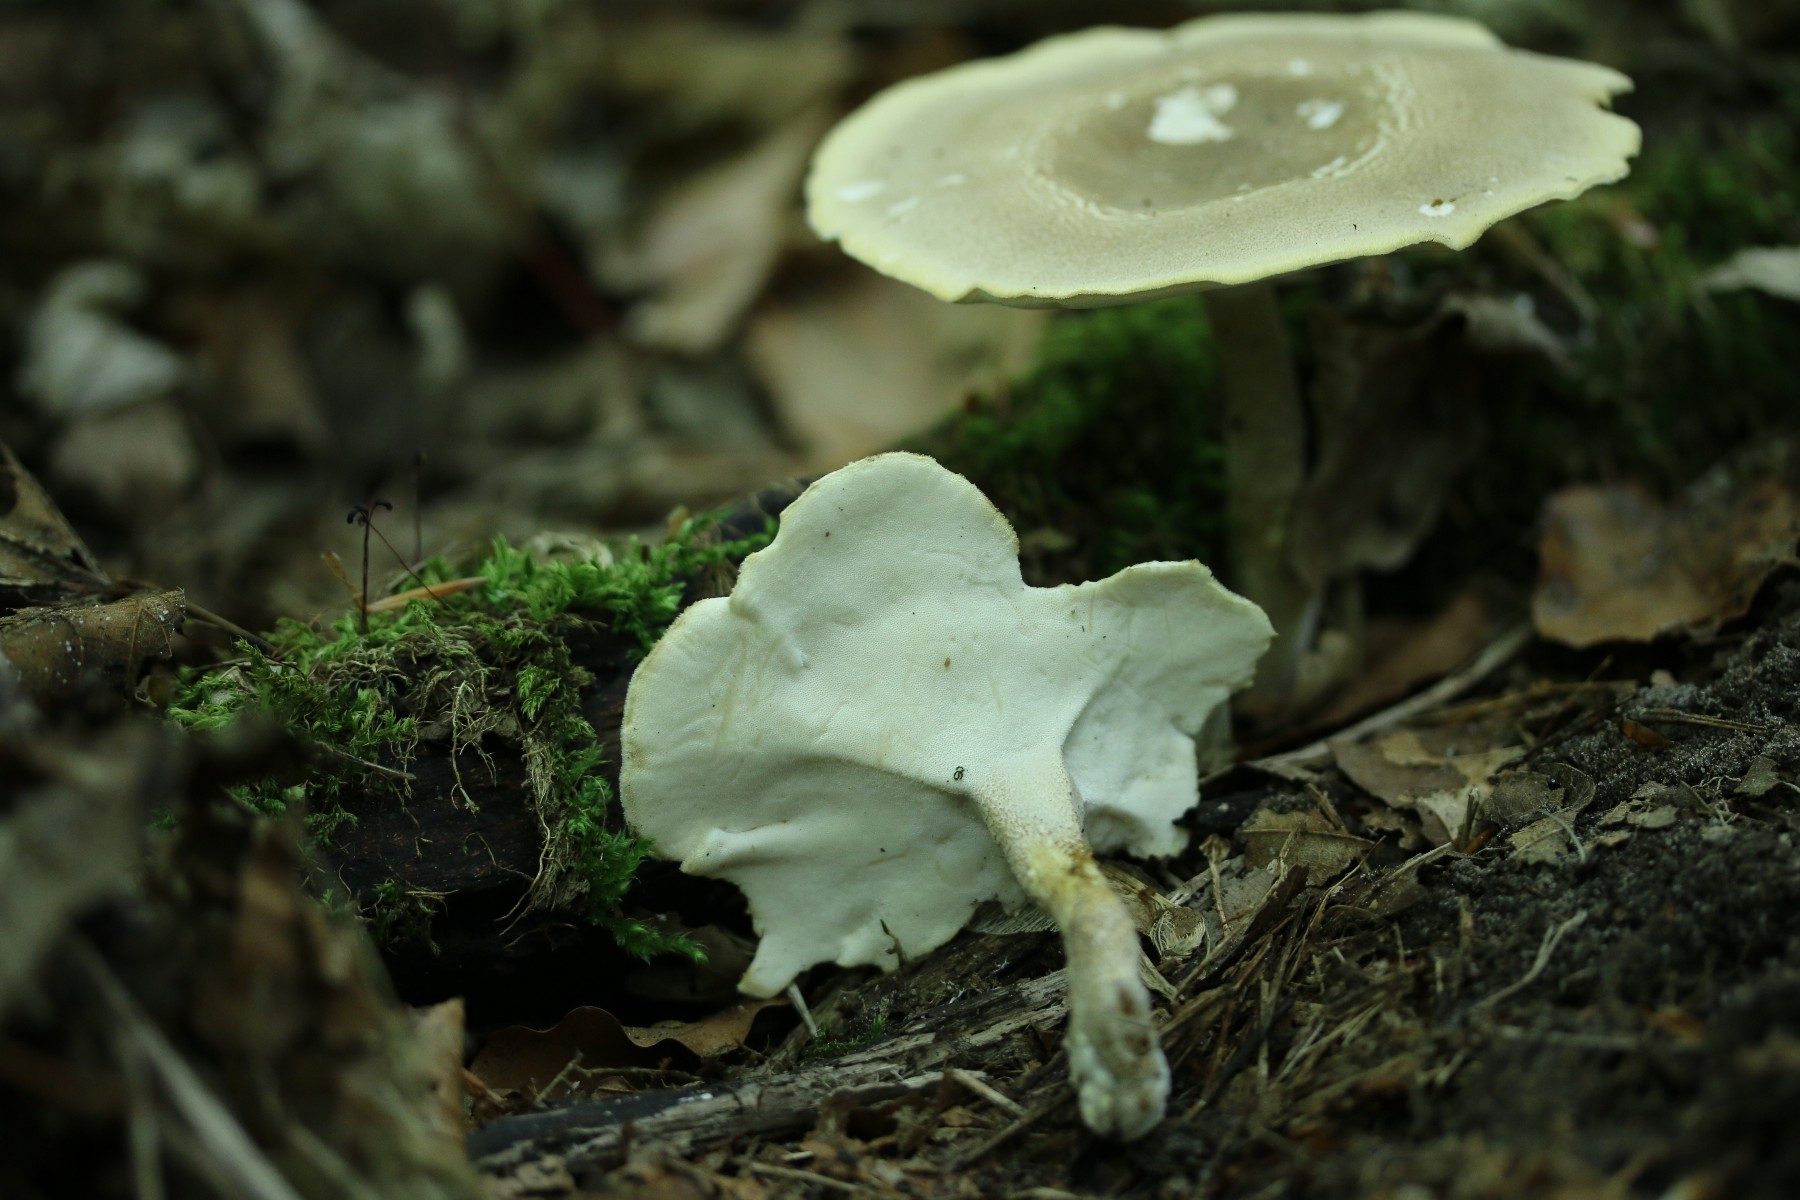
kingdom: Fungi
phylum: Basidiomycota
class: Agaricomycetes
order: Polyporales
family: Polyporaceae
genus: Lentinus
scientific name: Lentinus substrictus
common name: forårs-stilkporesvamp
